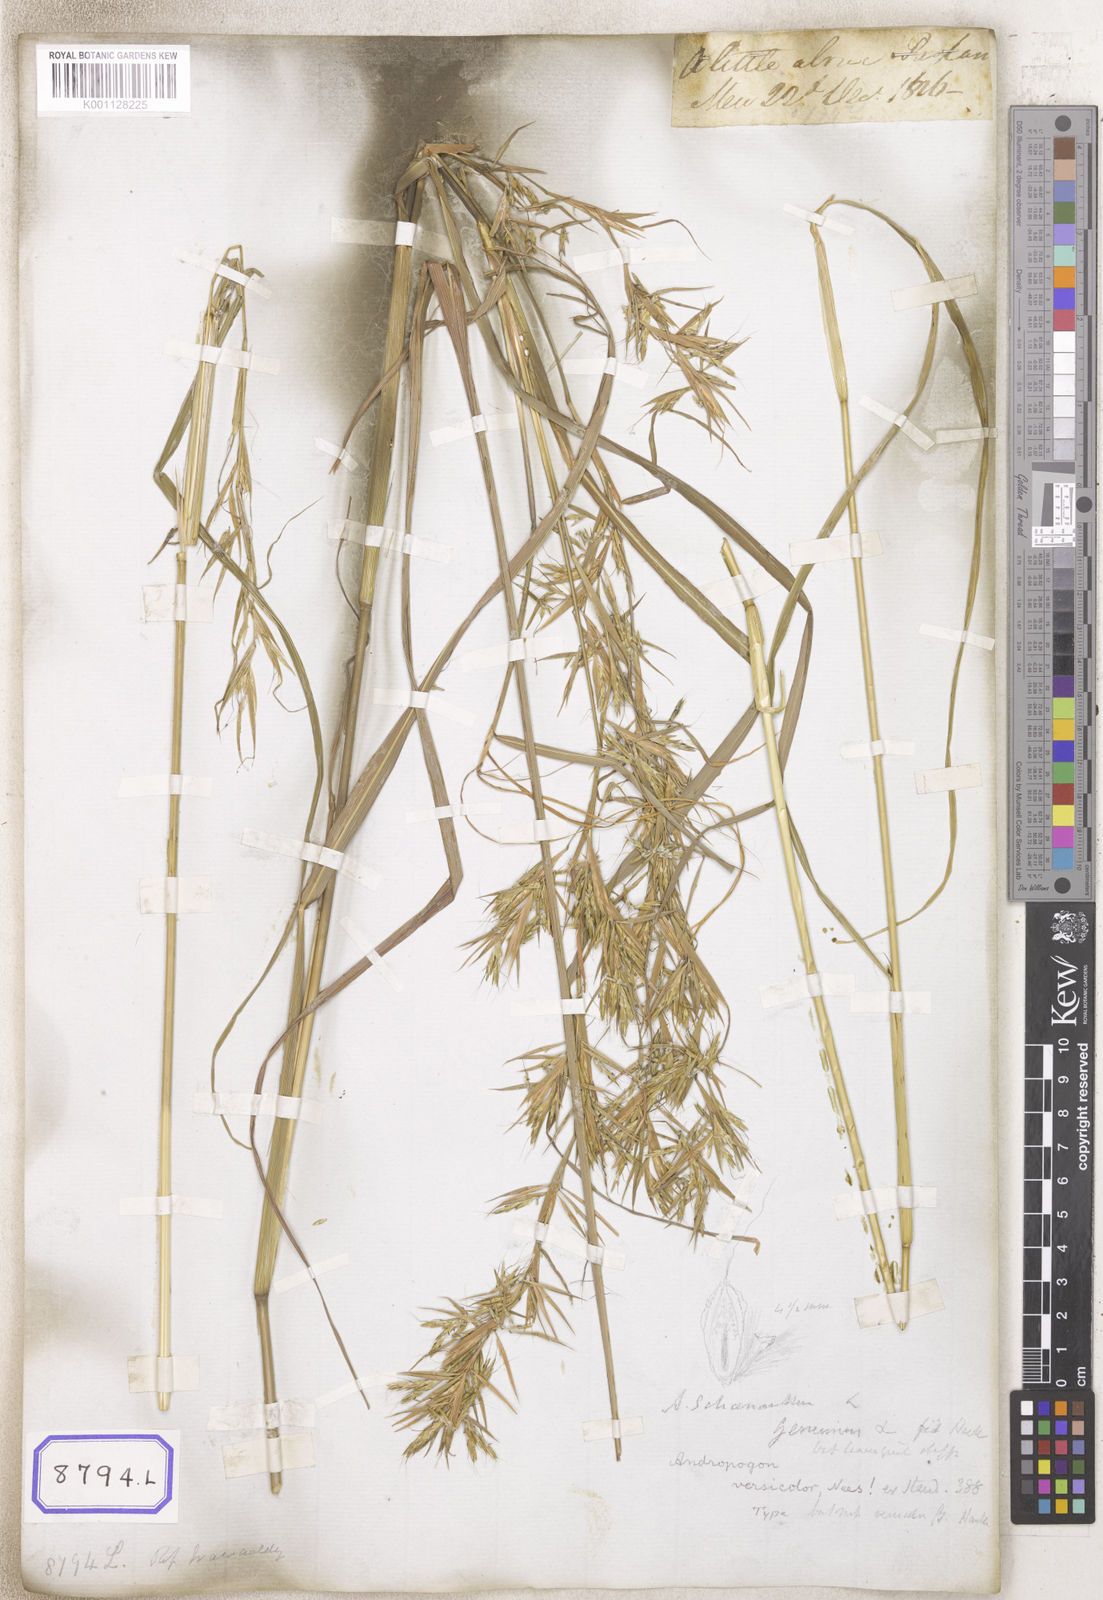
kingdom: Plantae
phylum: Tracheophyta
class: Liliopsida
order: Poales
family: Poaceae
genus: Cymbopogon
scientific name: Cymbopogon schoenanthus
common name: Geranium grass
